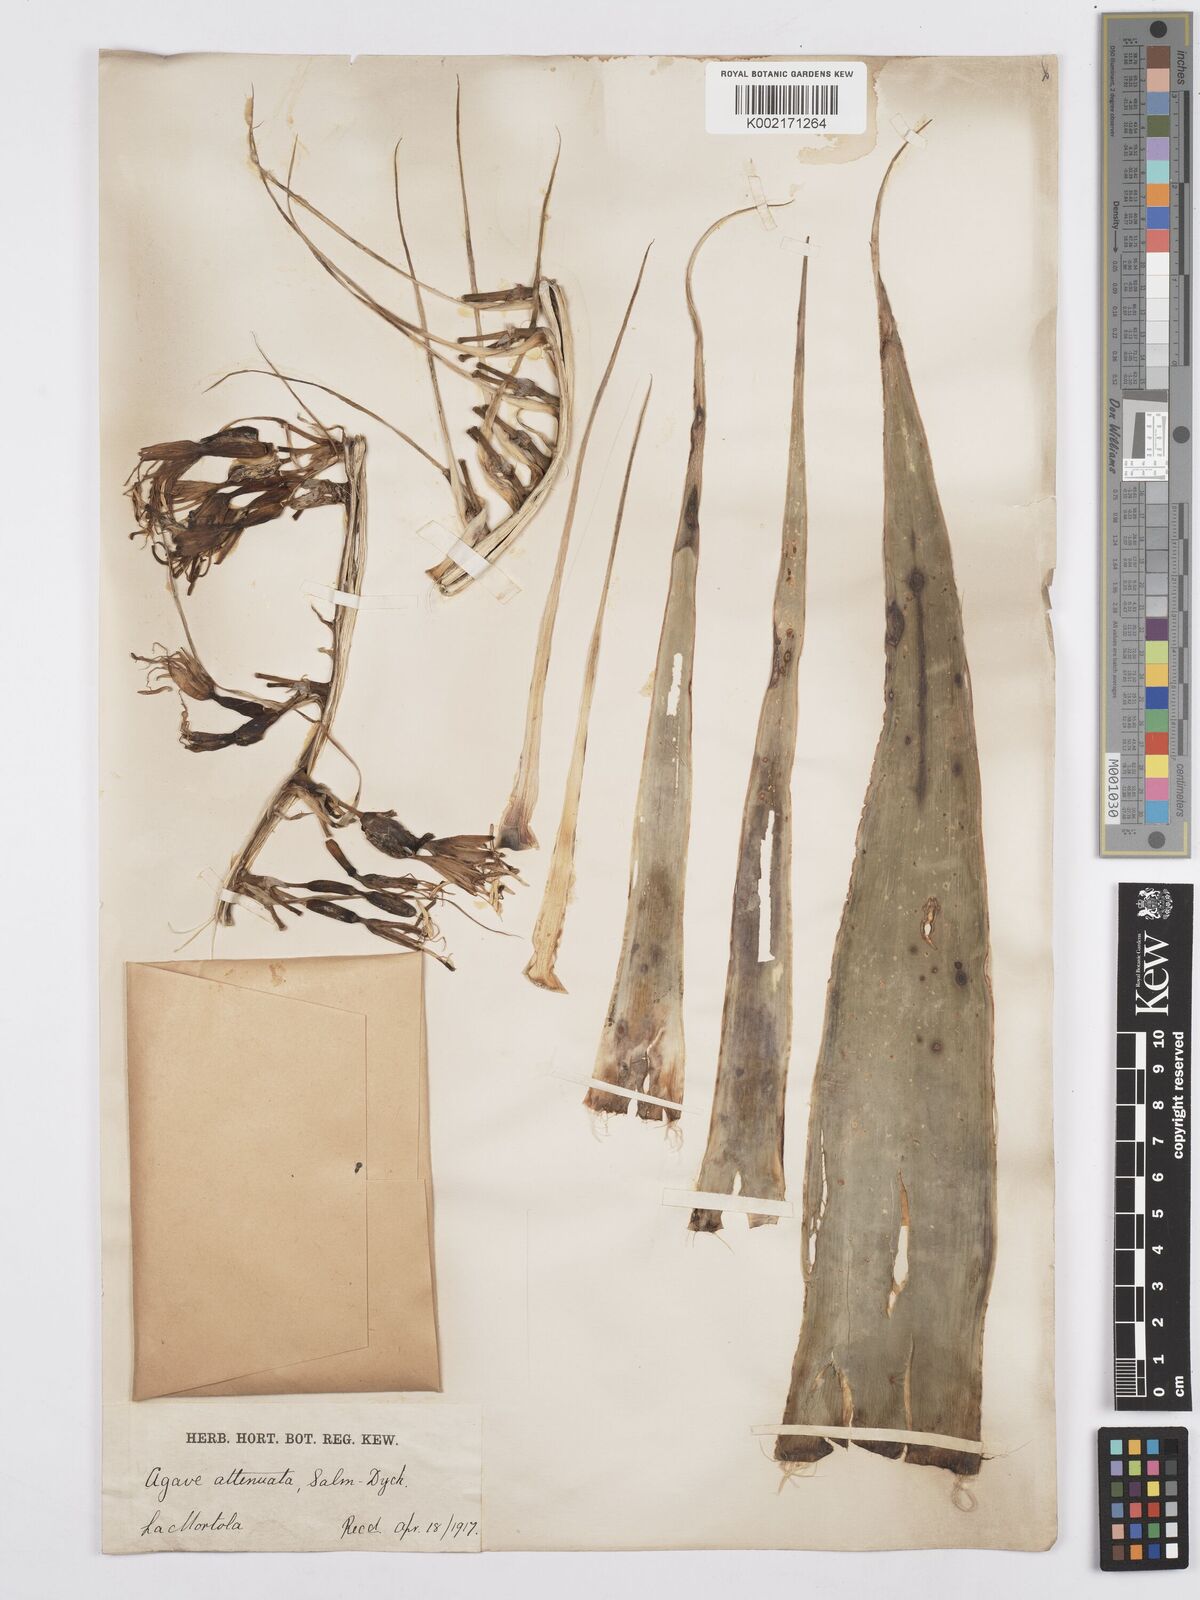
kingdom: Plantae
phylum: Tracheophyta
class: Liliopsida
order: Asparagales
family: Asparagaceae
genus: Agave
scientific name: Agave attenuata
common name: Fox tail agave
